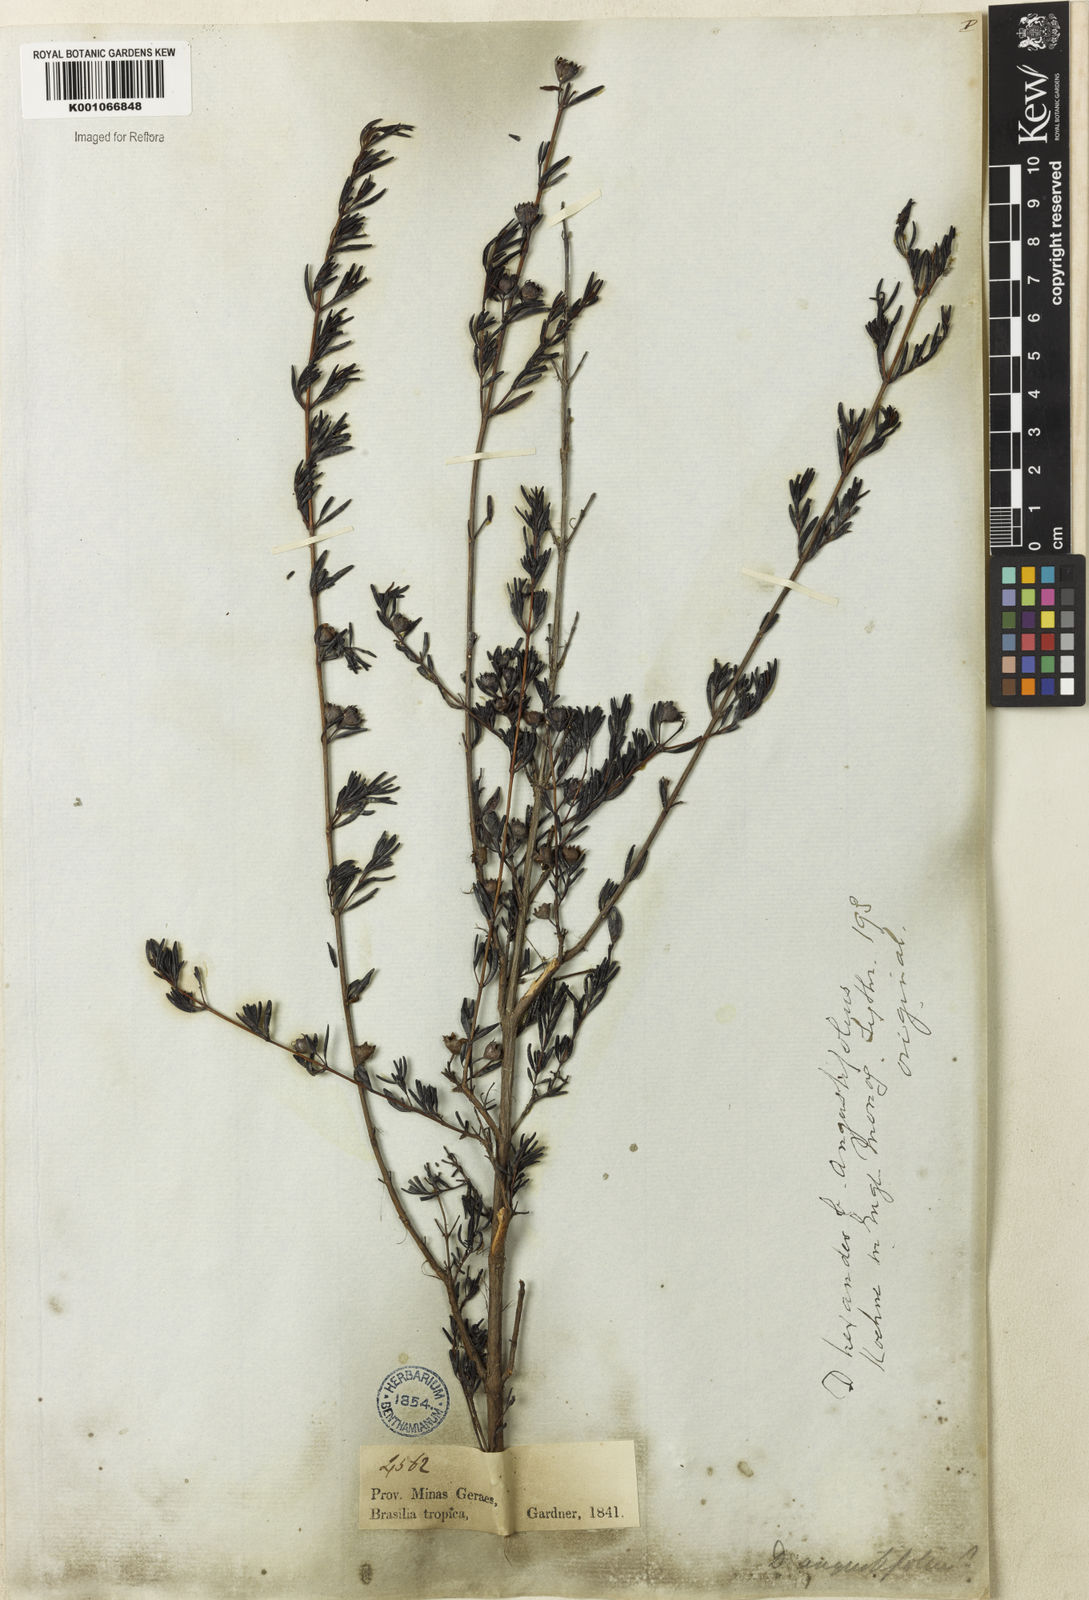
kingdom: Plantae
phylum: Tracheophyta
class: Magnoliopsida
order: Myrtales
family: Lythraceae
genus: Diplusodon
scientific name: Diplusodon hexander
